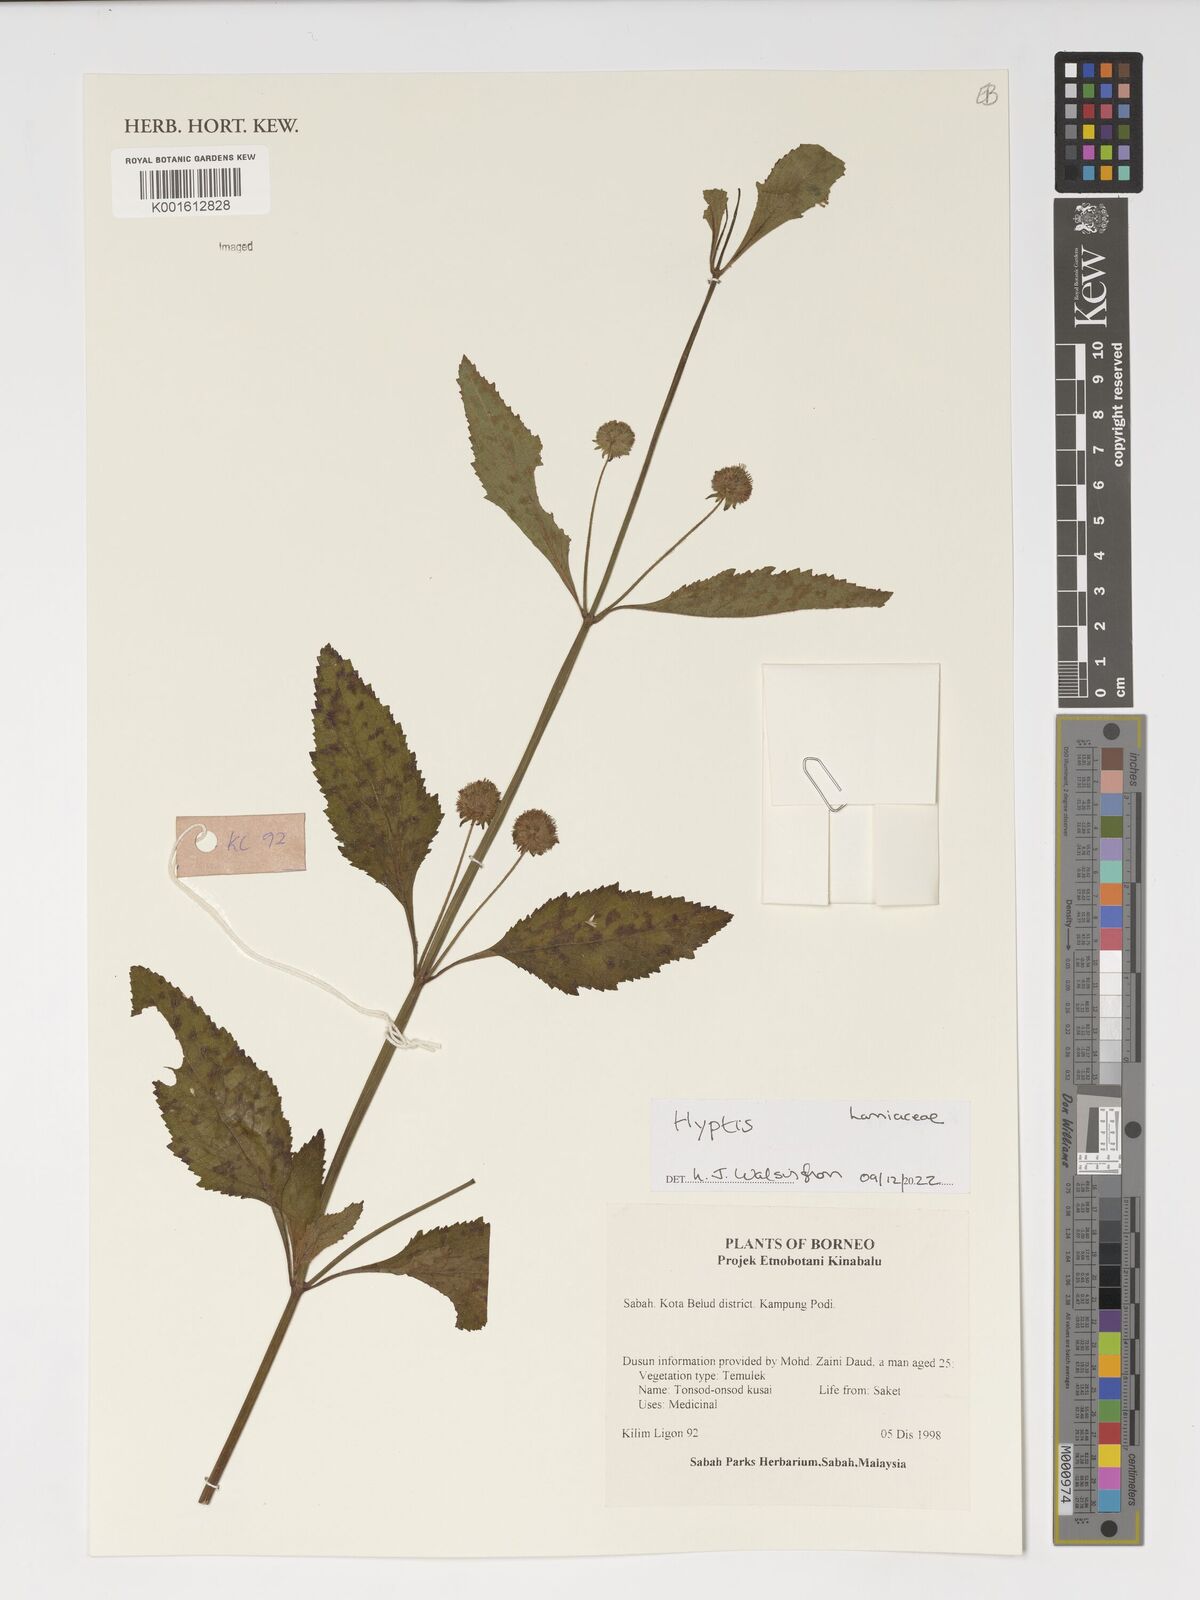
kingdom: Plantae
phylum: Tracheophyta
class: Magnoliopsida
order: Lamiales
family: Lamiaceae
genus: Hyptis
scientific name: Hyptis
